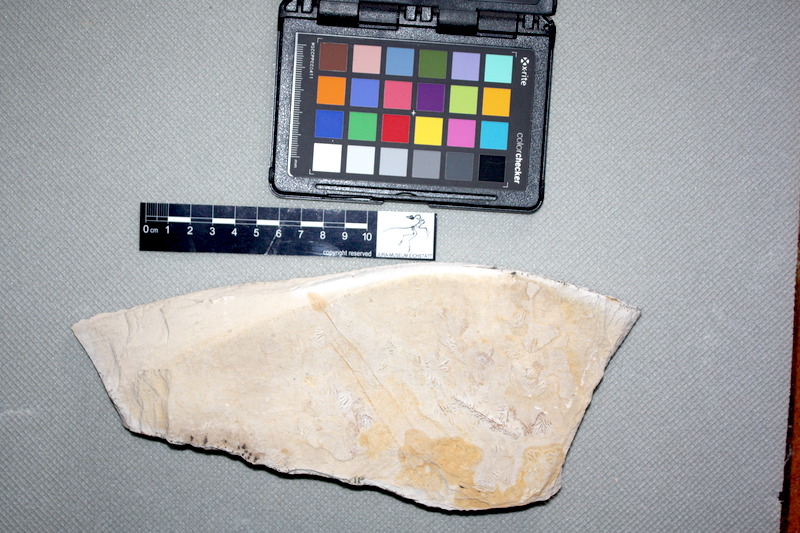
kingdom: Animalia
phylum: Chordata
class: Coelacanthi
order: Coelacanthiformes
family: Latimeroidea
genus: Macropoma
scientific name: Macropoma willemoesii
